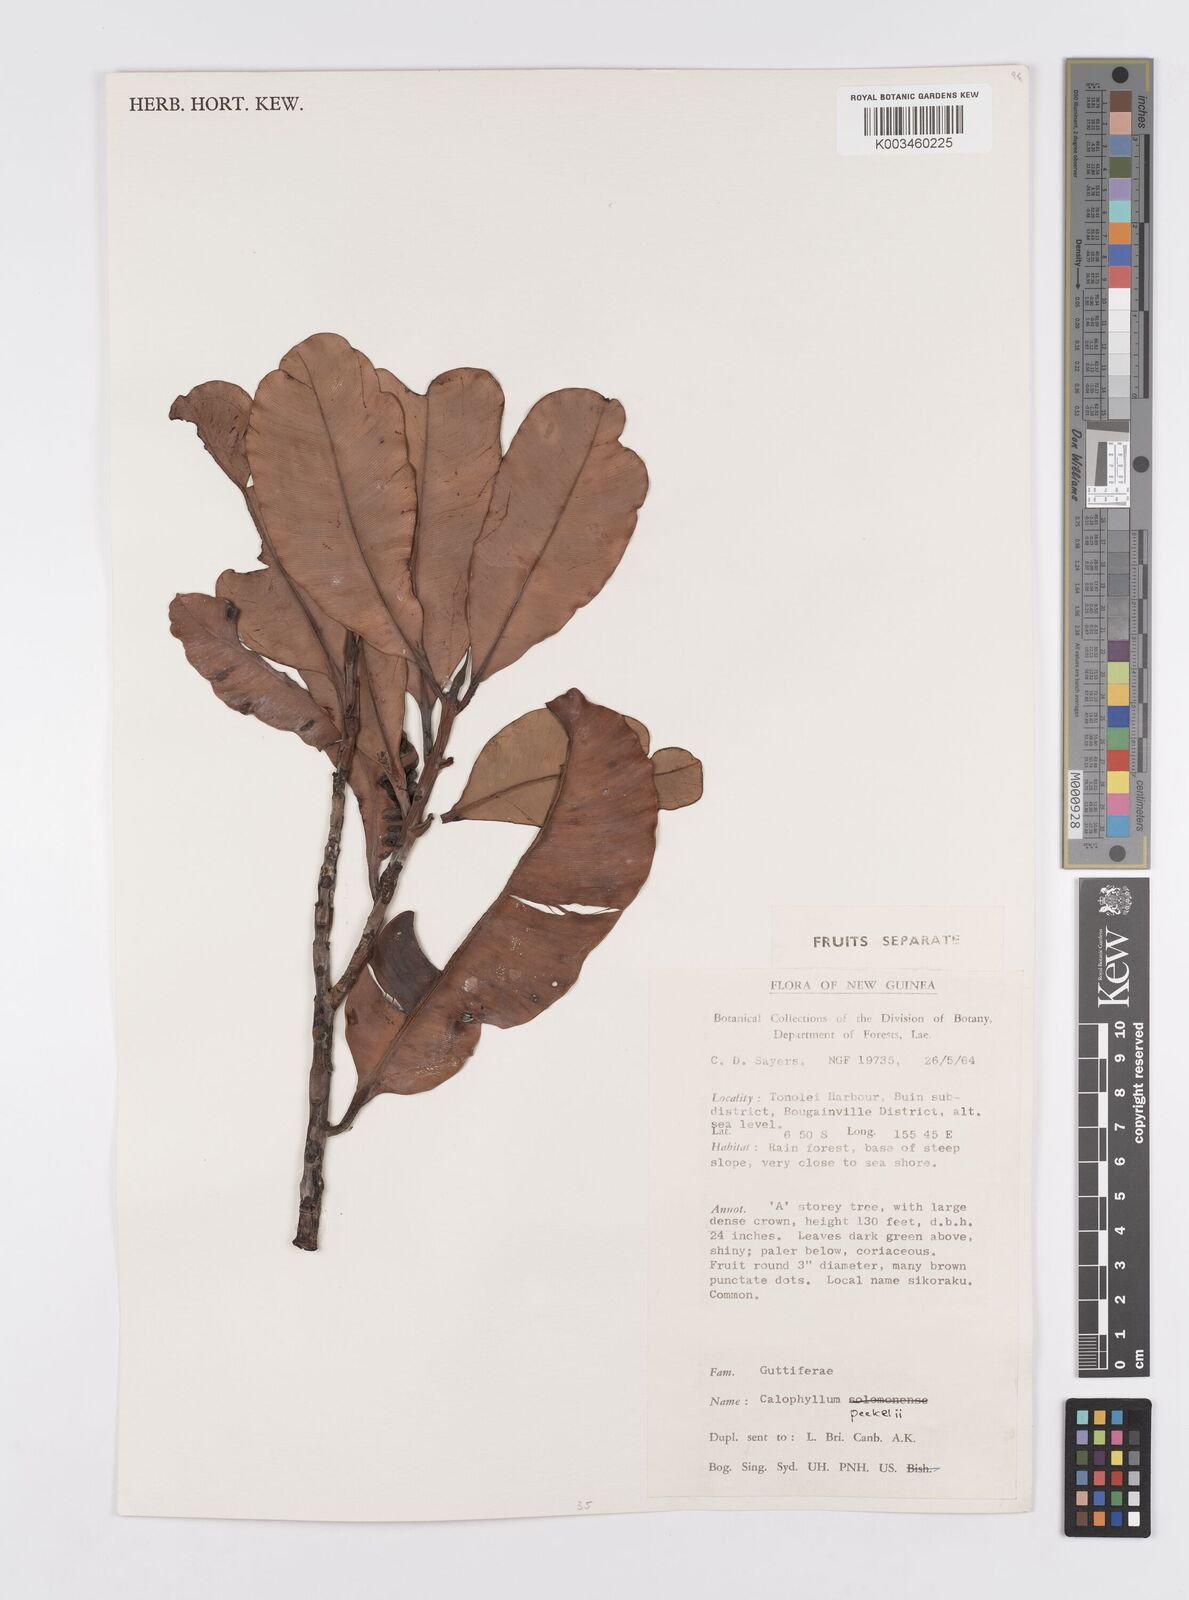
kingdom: Plantae
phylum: Tracheophyta
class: Magnoliopsida
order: Malpighiales
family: Calophyllaceae
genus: Calophyllum
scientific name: Calophyllum peekelii
